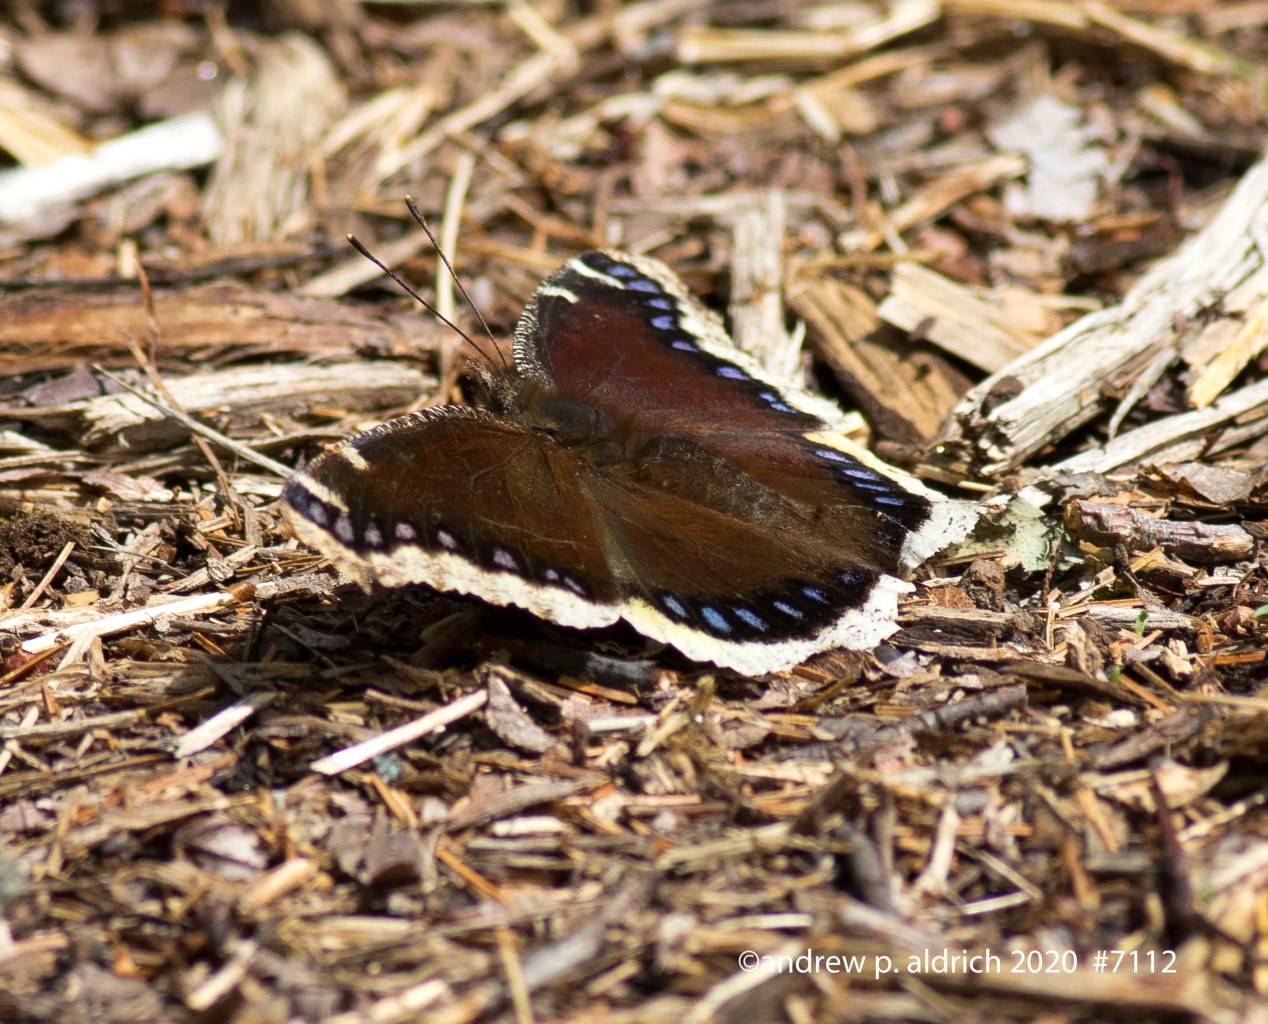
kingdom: Animalia
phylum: Arthropoda
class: Insecta
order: Lepidoptera
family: Nymphalidae
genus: Nymphalis
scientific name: Nymphalis antiopa
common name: Mourning Cloak
